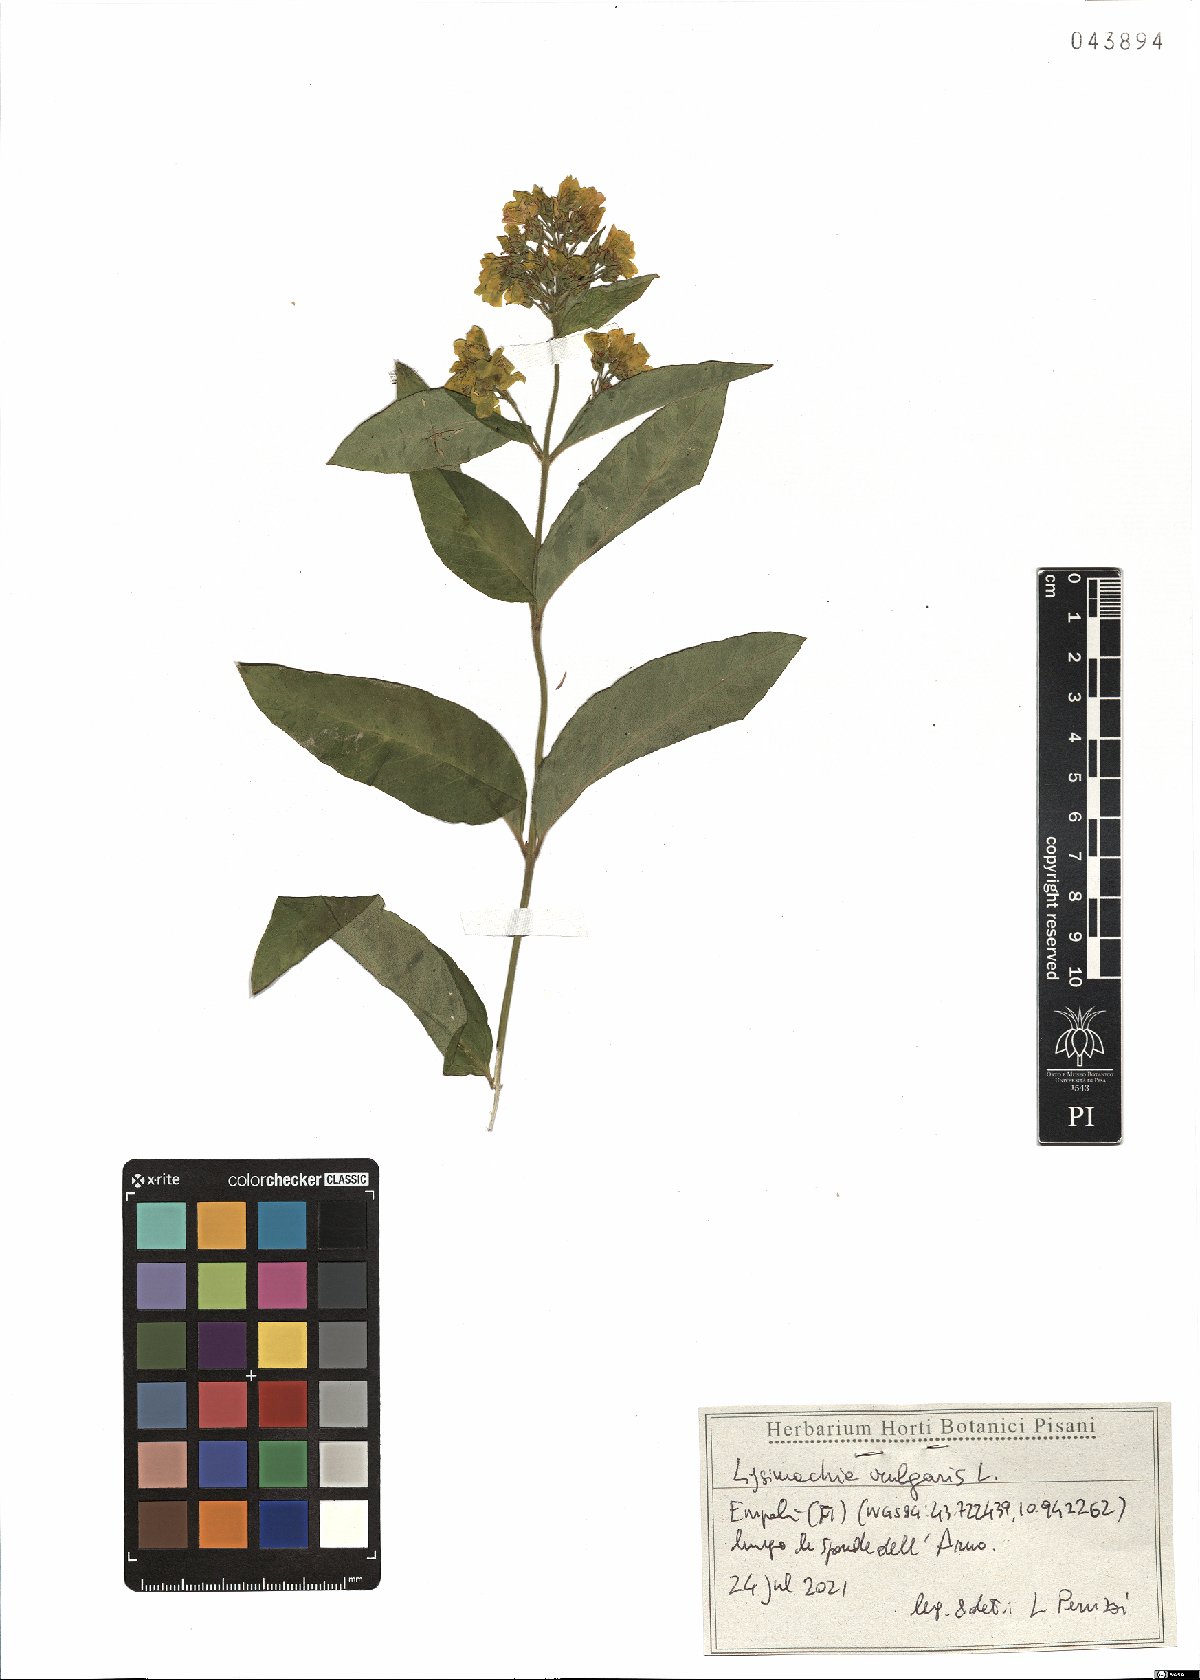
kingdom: Plantae
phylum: Tracheophyta
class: Magnoliopsida
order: Ericales
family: Primulaceae
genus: Lysimachia
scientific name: Lysimachia vulgaris
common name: Yellow loosestrife
